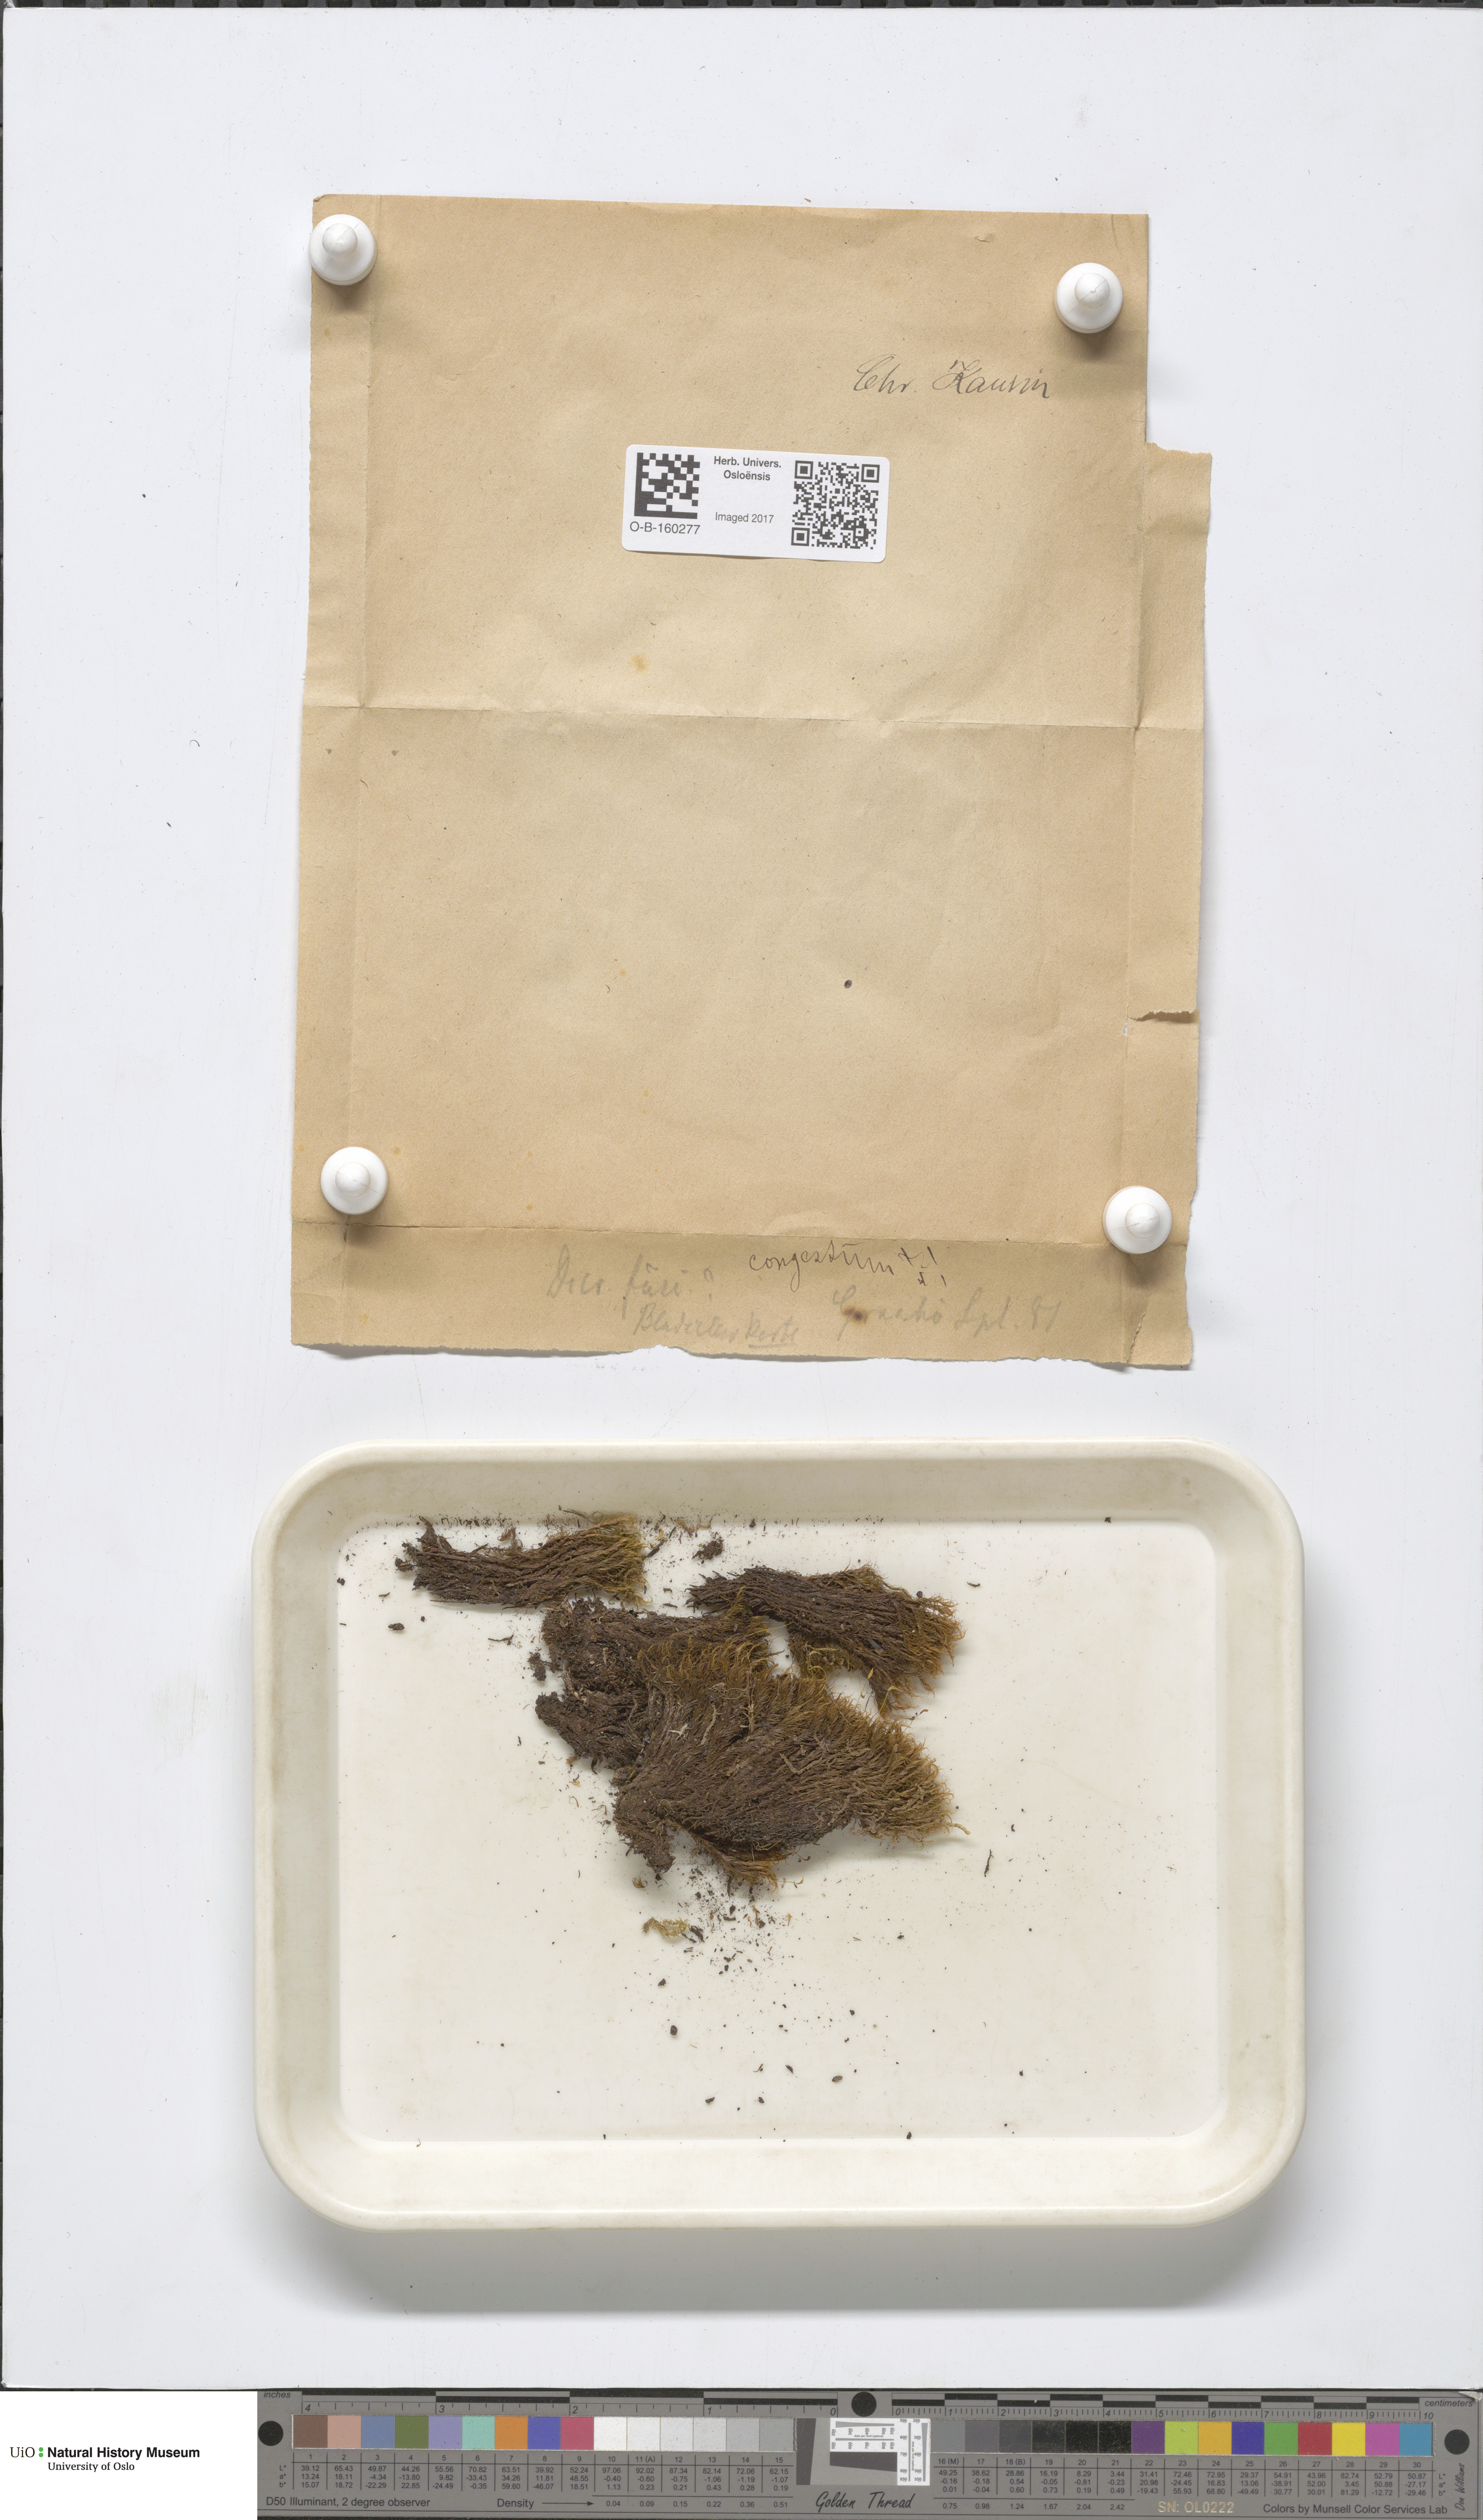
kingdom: Plantae
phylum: Bryophyta
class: Bryopsida
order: Dicranales
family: Dicranaceae
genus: Dicranum
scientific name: Dicranum flexicaule
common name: Bendy heron s-bill moss
